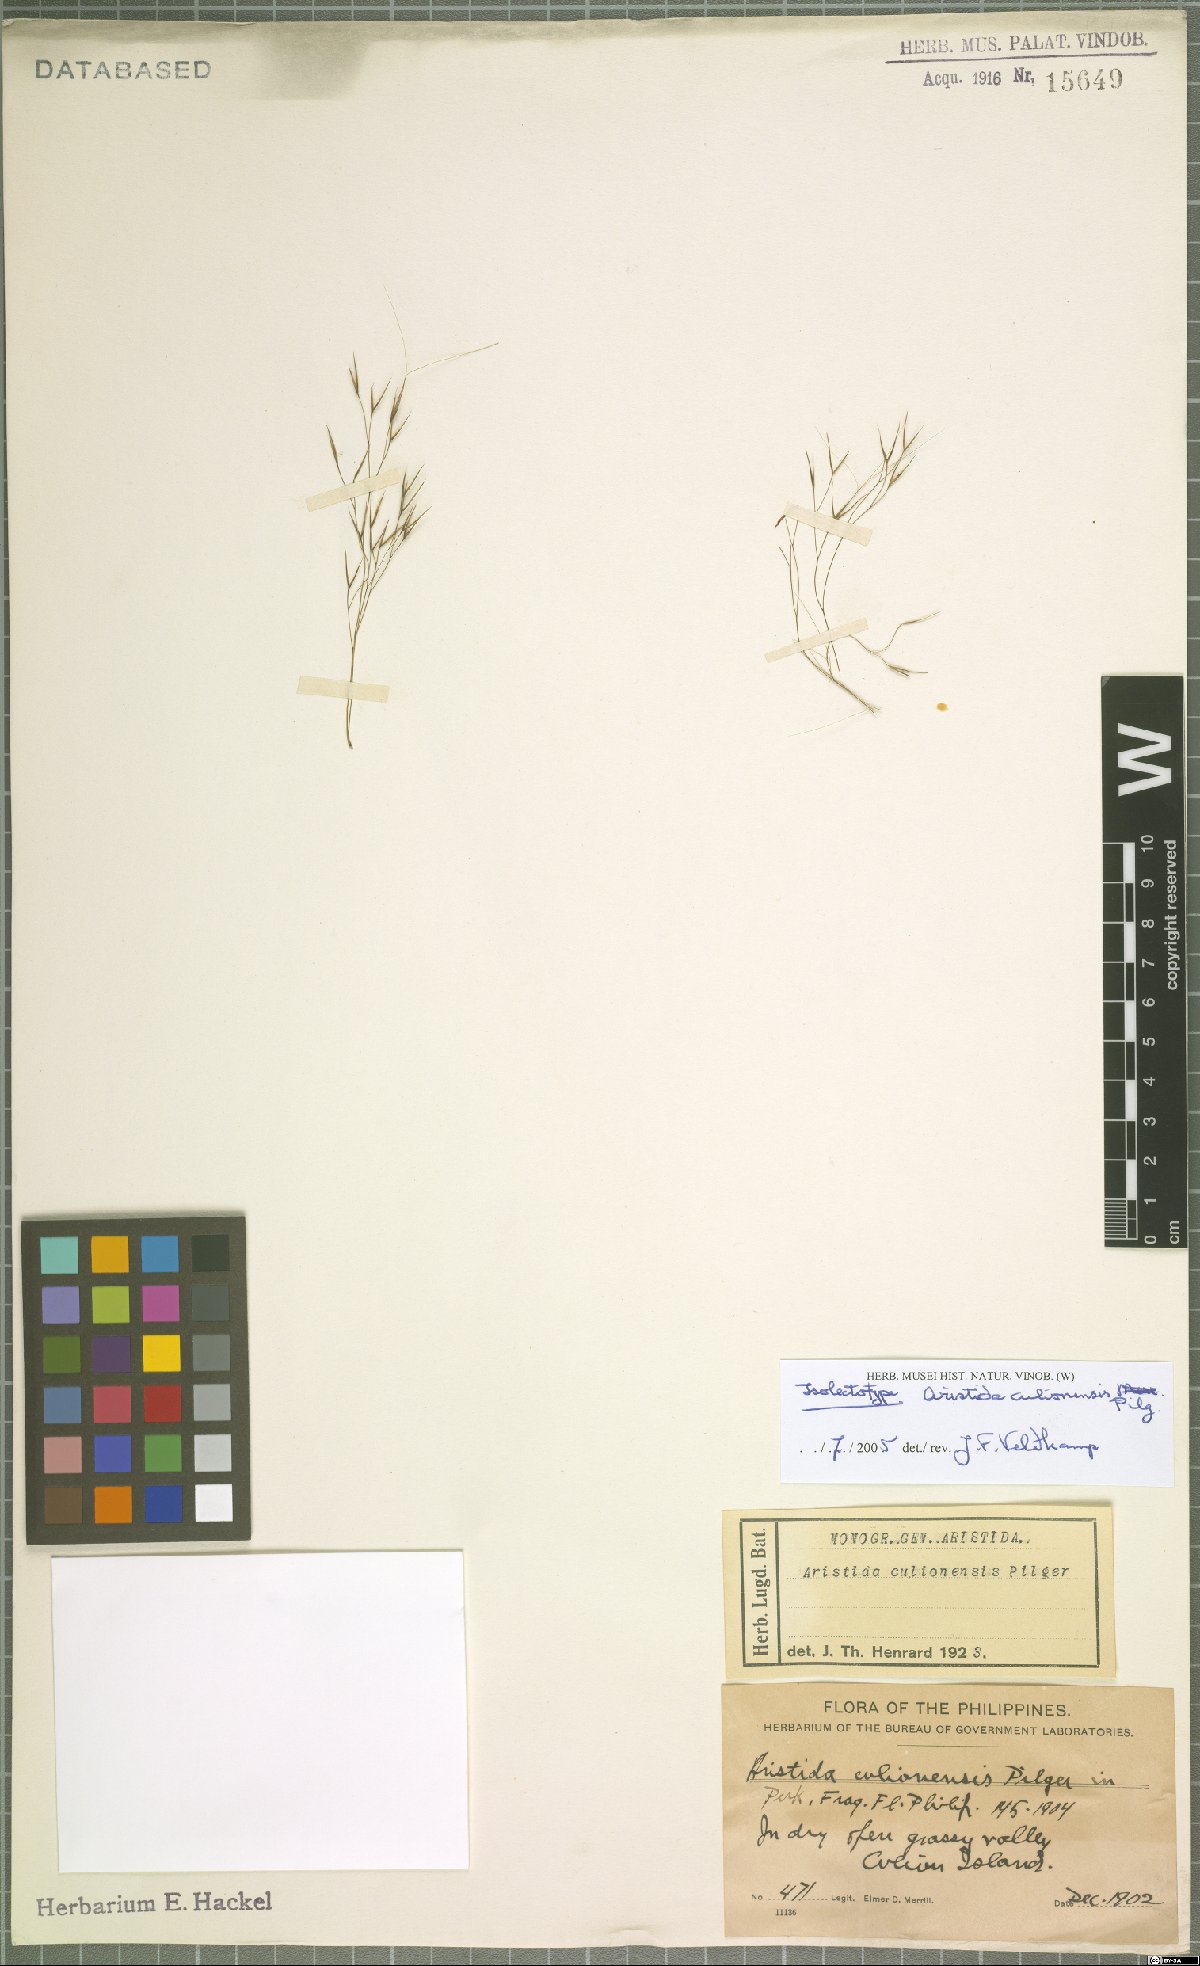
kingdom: Plantae
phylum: Tracheophyta
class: Liliopsida
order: Poales
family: Poaceae
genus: Aristida
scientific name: Aristida culionensis
